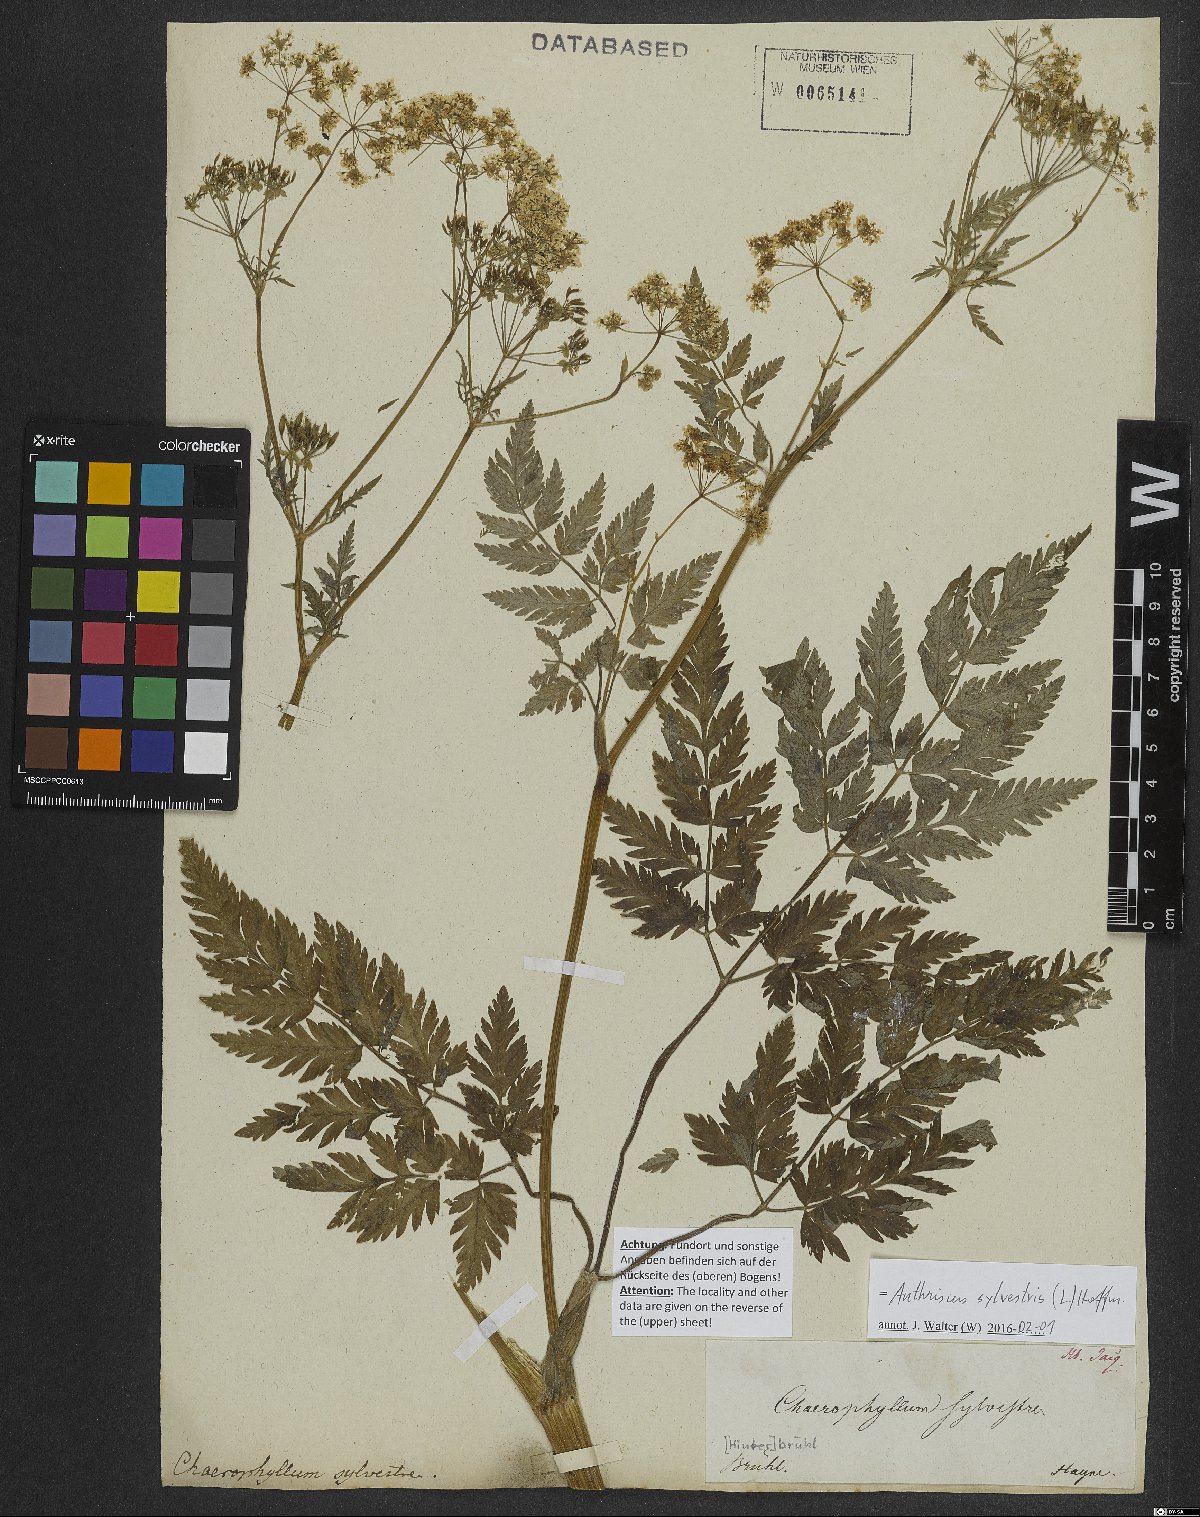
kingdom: Plantae
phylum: Tracheophyta
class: Magnoliopsida
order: Apiales
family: Apiaceae
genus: Anthriscus
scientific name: Anthriscus sylvestris
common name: Cow parsley
